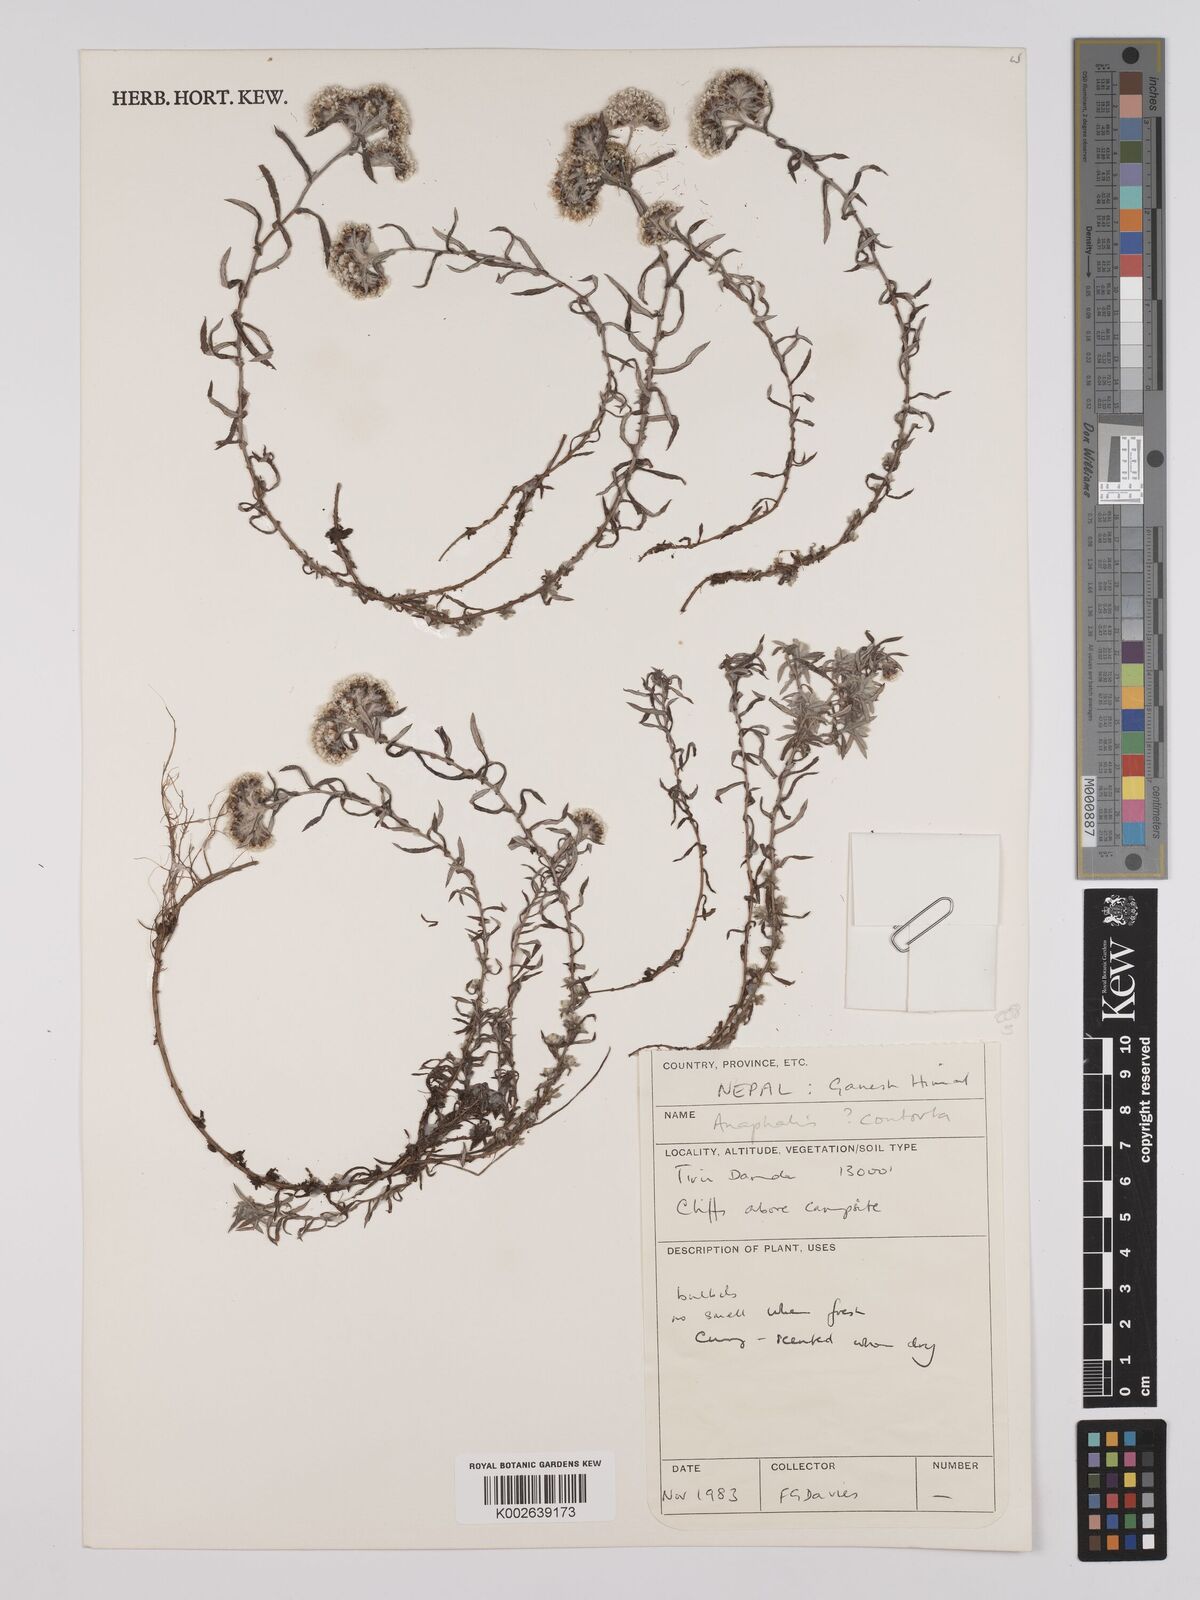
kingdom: Plantae
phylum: Tracheophyta
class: Magnoliopsida
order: Asterales
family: Asteraceae
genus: Anaphalis
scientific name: Anaphalis contorta
